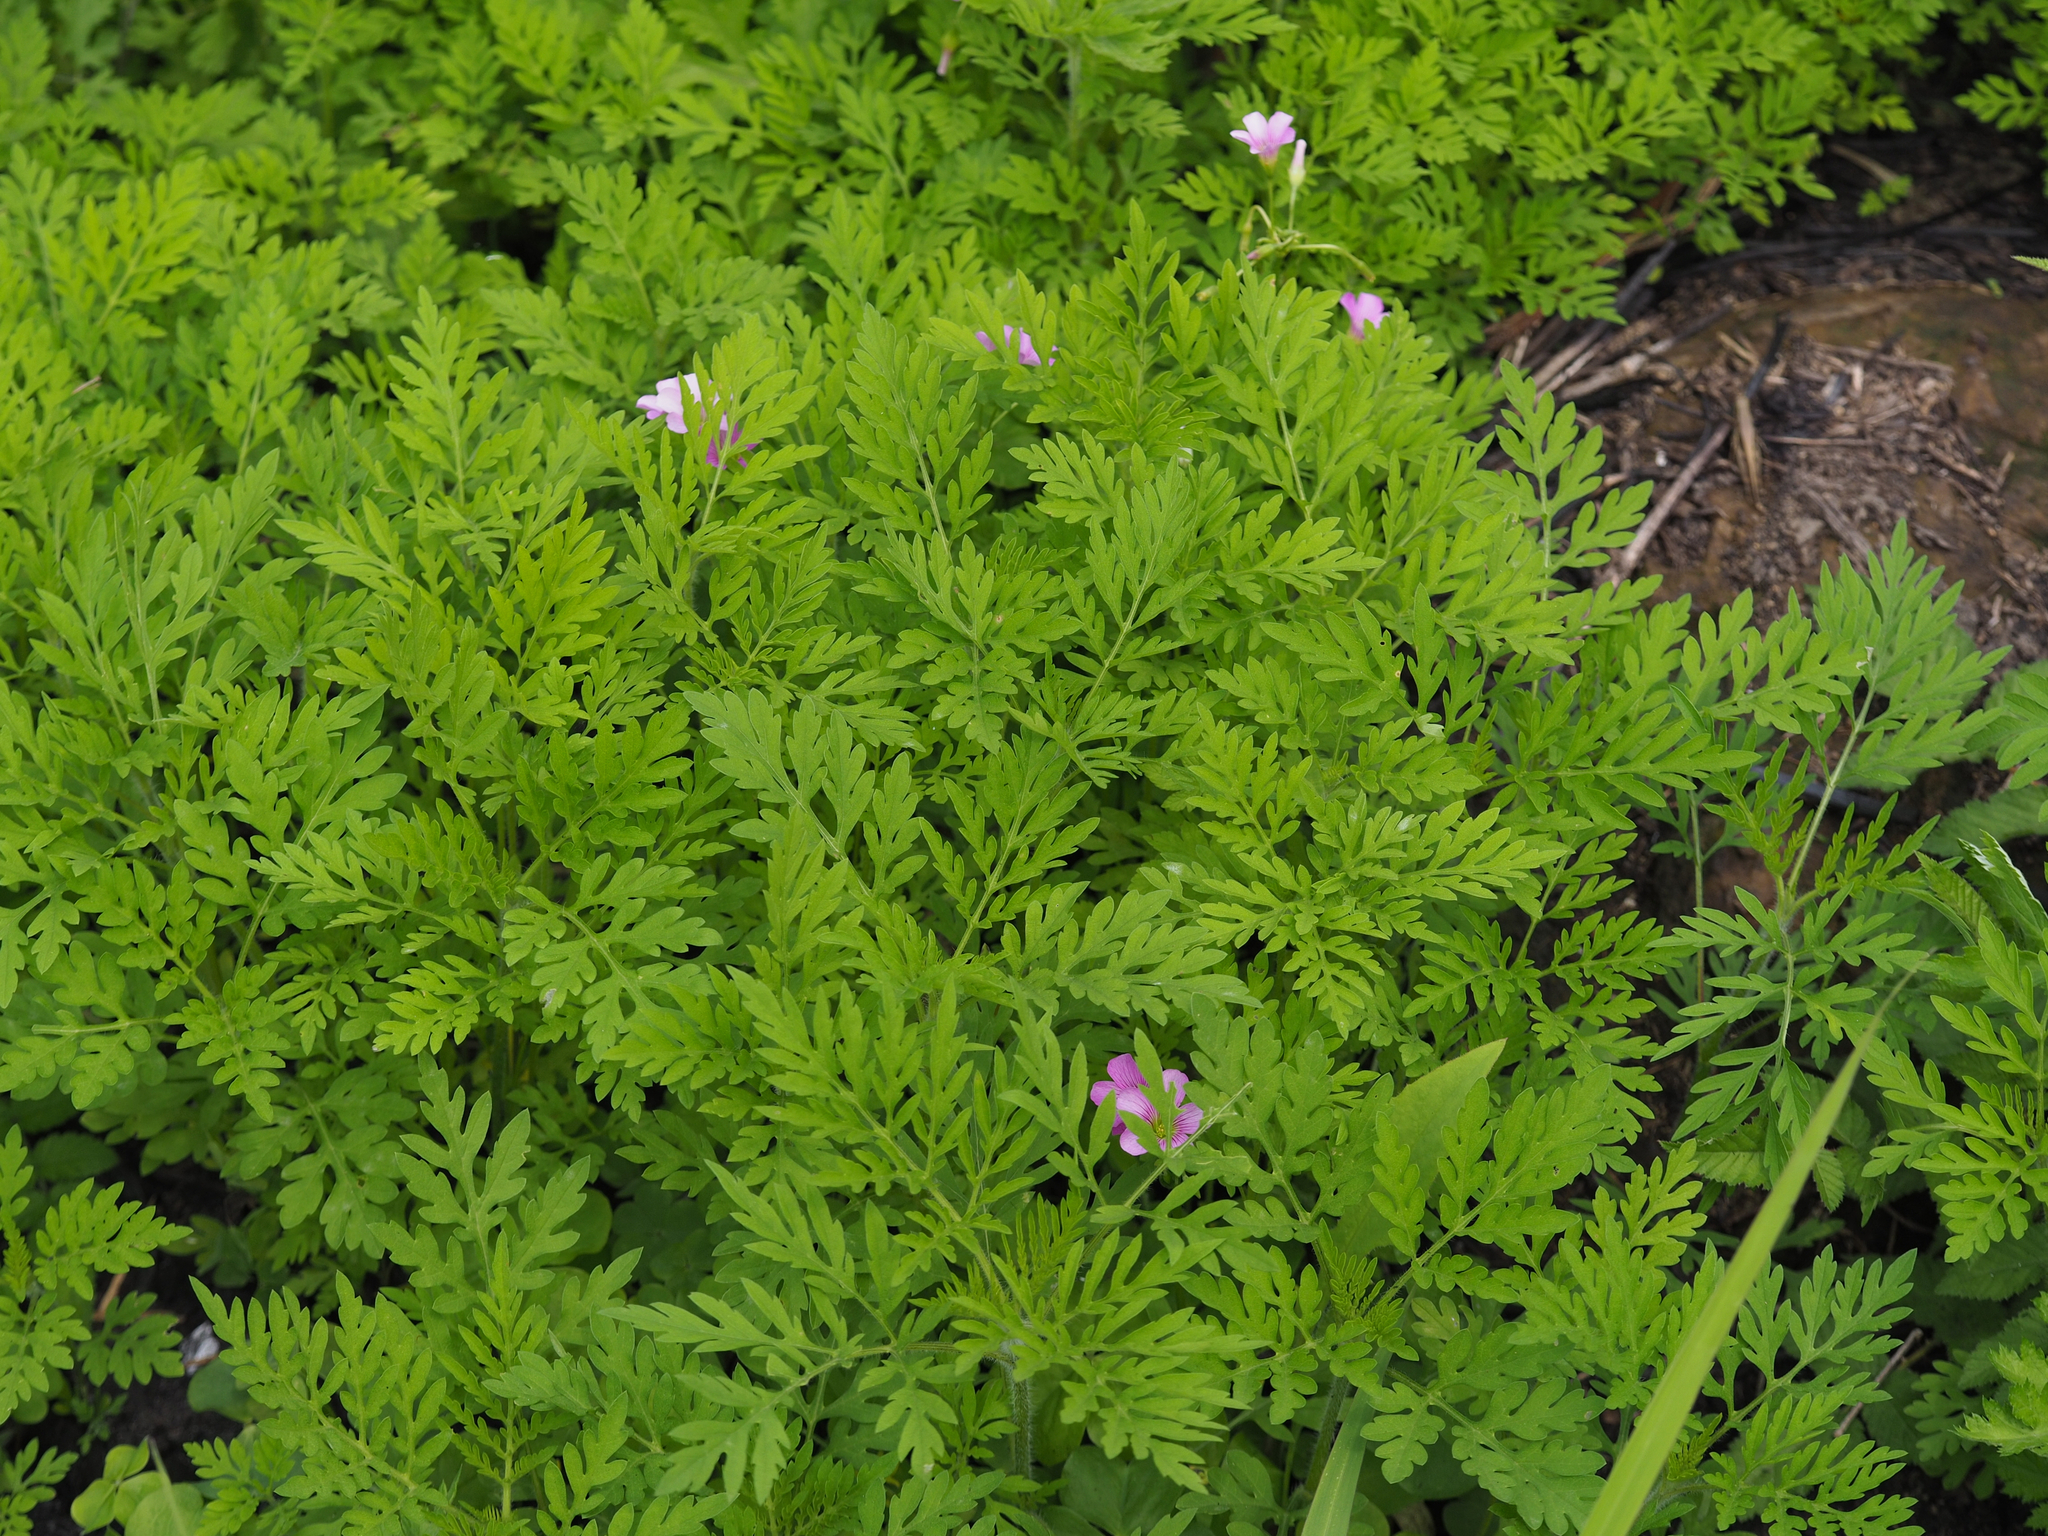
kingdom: Plantae
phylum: Tracheophyta
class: Magnoliopsida
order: Asterales
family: Asteraceae
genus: Ambrosia
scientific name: Ambrosia artemisiifolia
